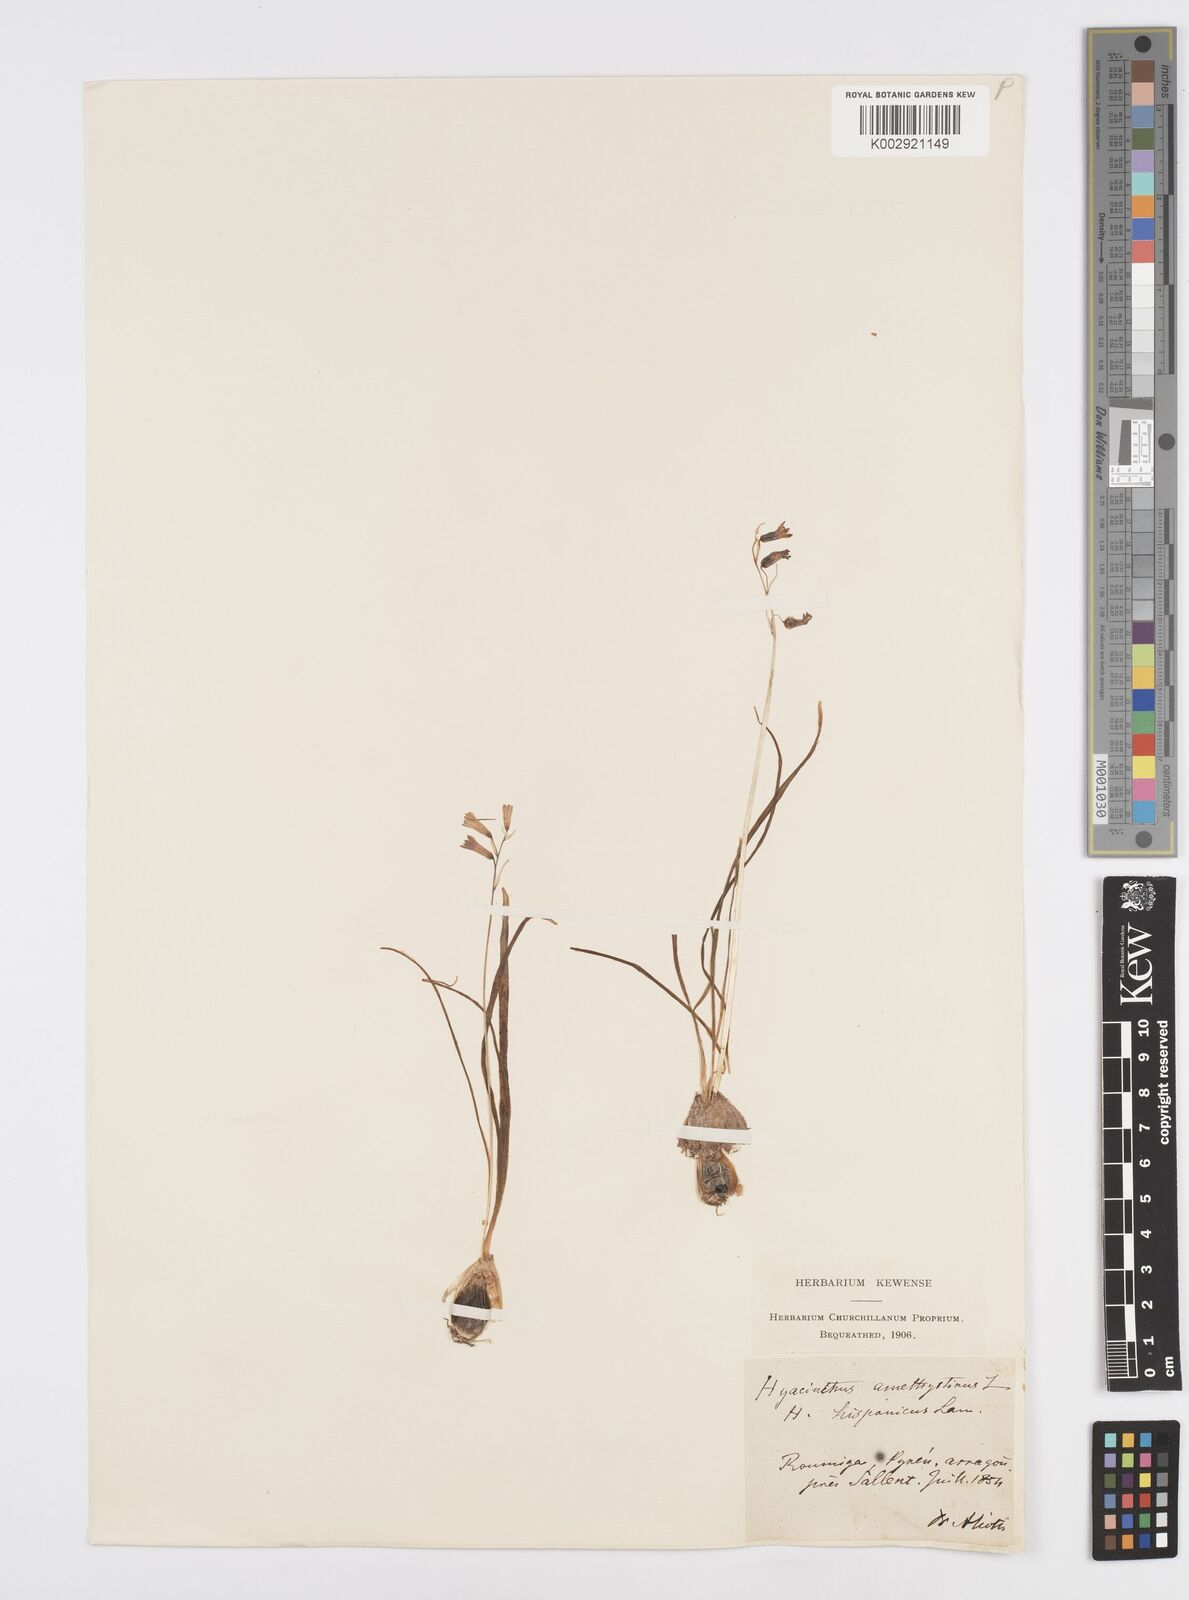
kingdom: Plantae
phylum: Tracheophyta
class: Liliopsida
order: Asparagales
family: Asparagaceae
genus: Brimeura
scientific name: Brimeura amethystina
